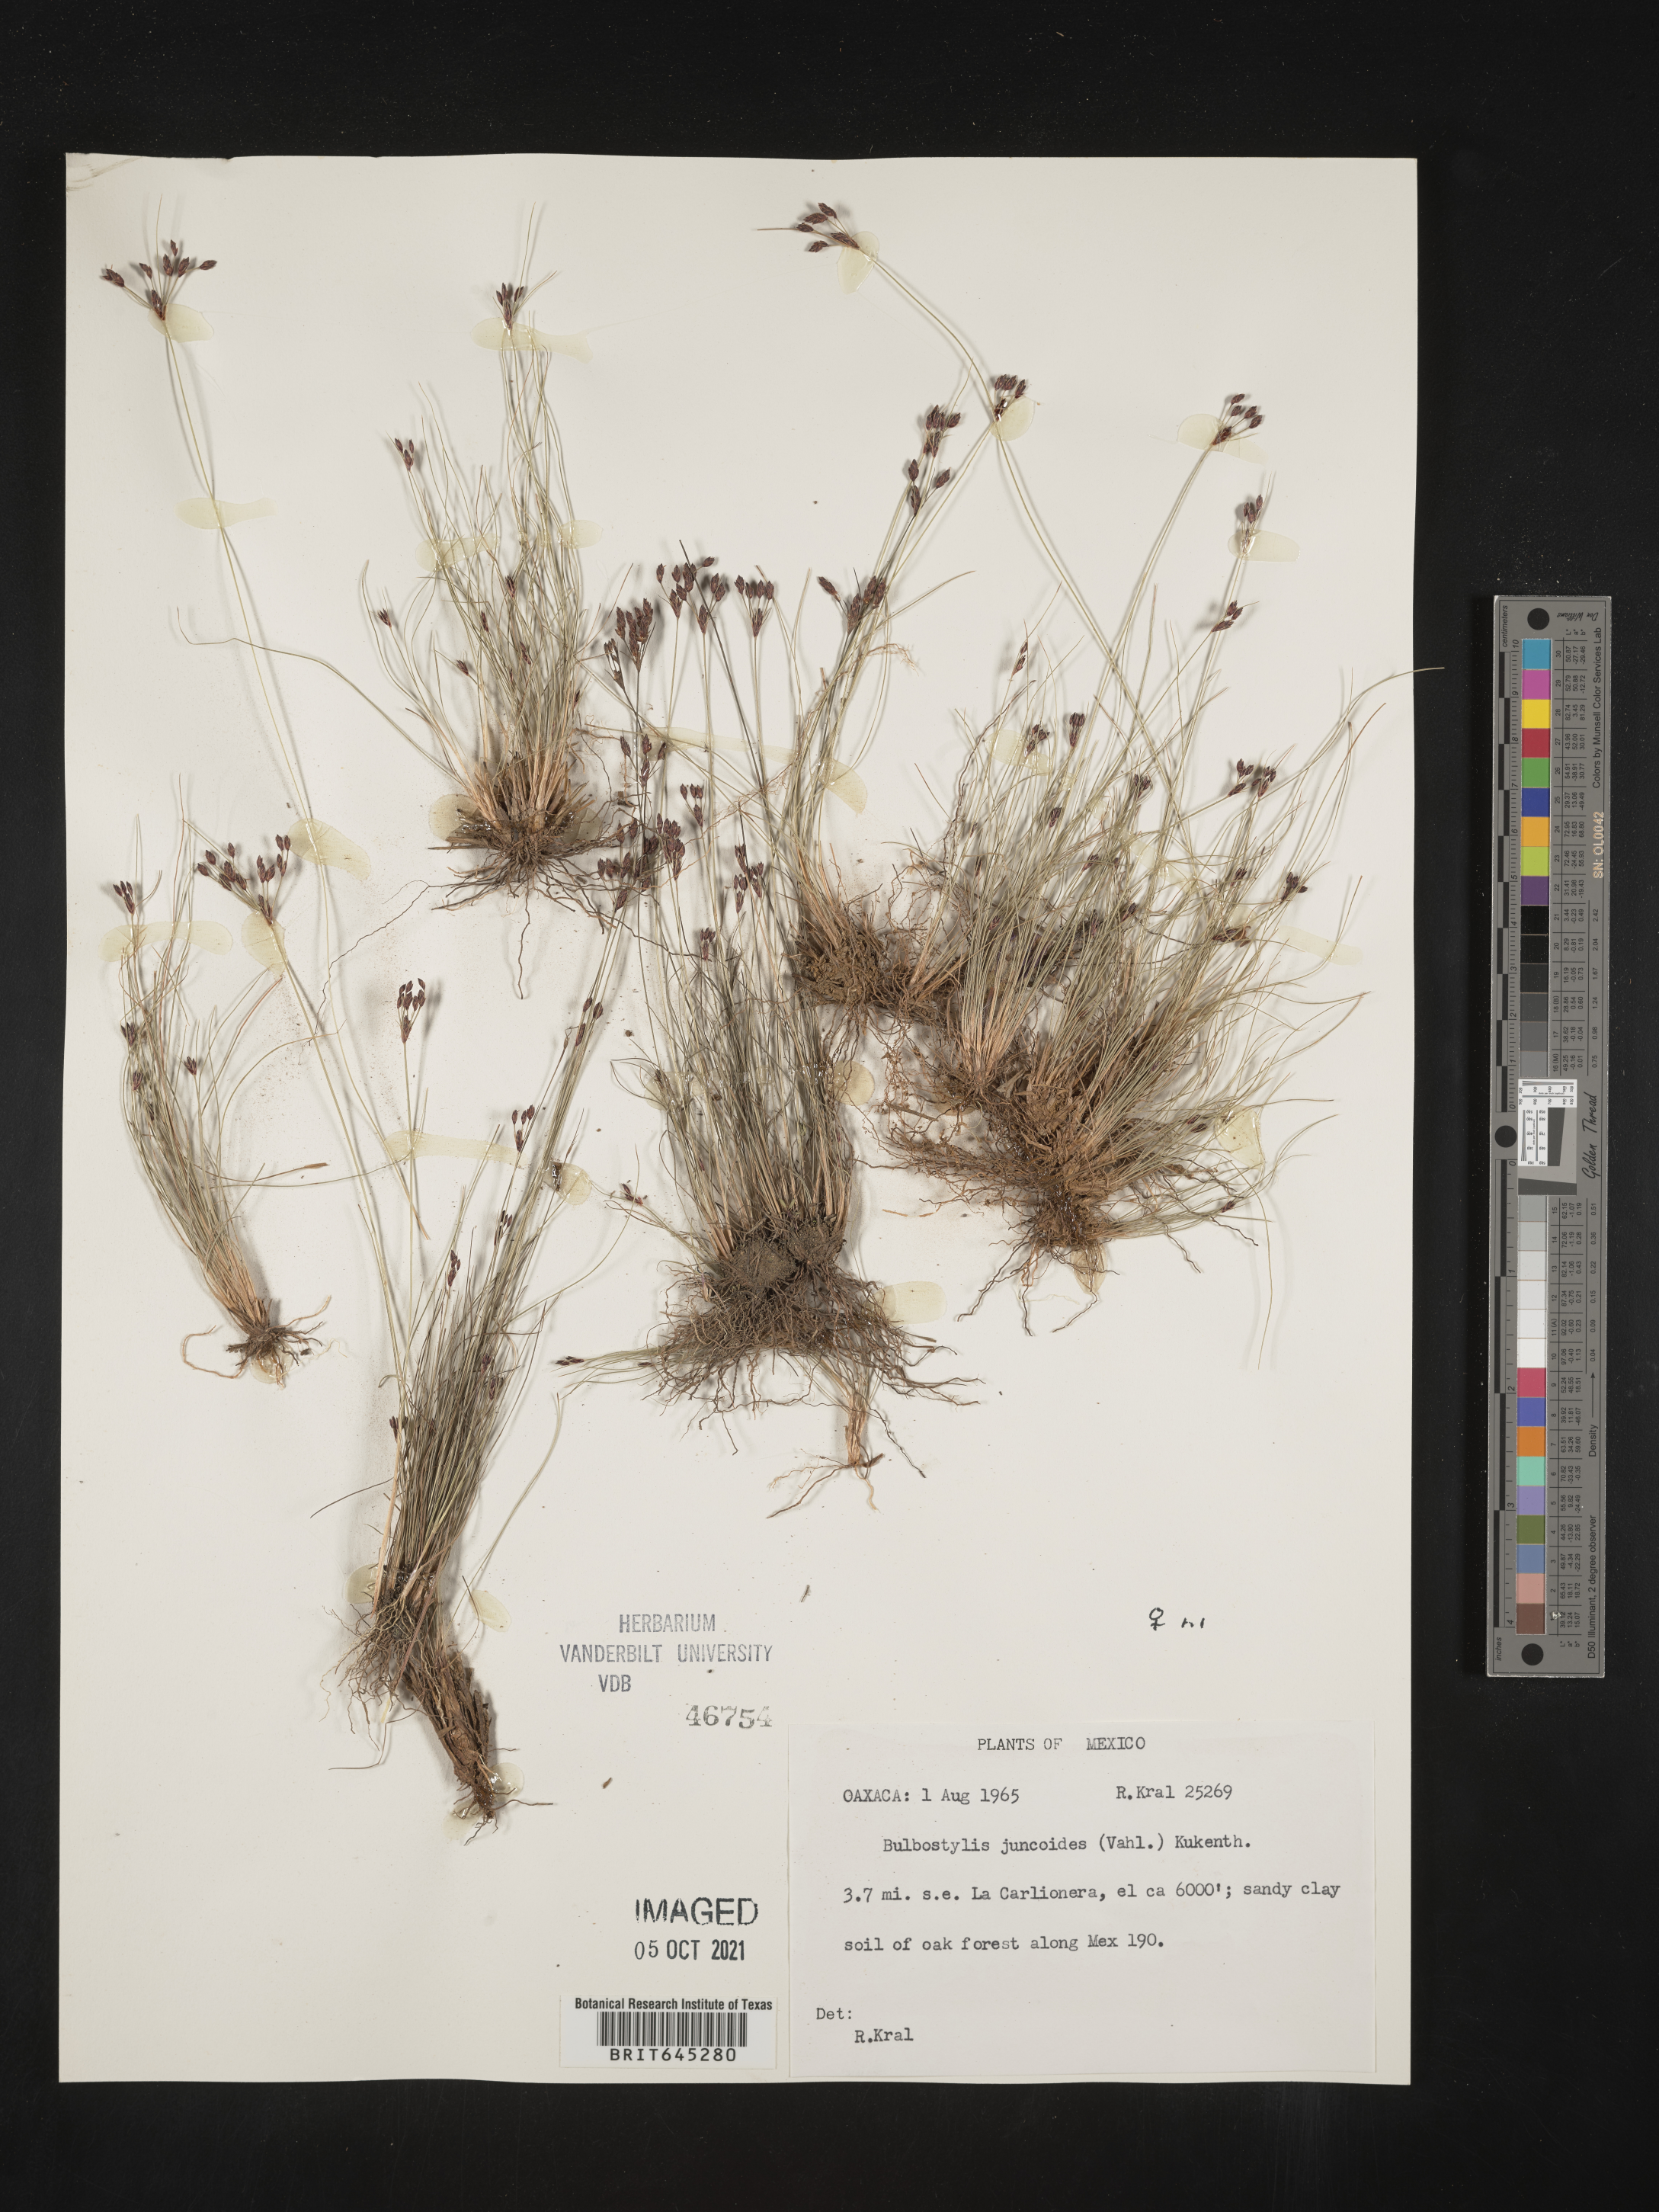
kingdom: Plantae
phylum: Tracheophyta
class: Liliopsida
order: Poales
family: Cyperaceae
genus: Bulbostylis
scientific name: Bulbostylis juncoides
